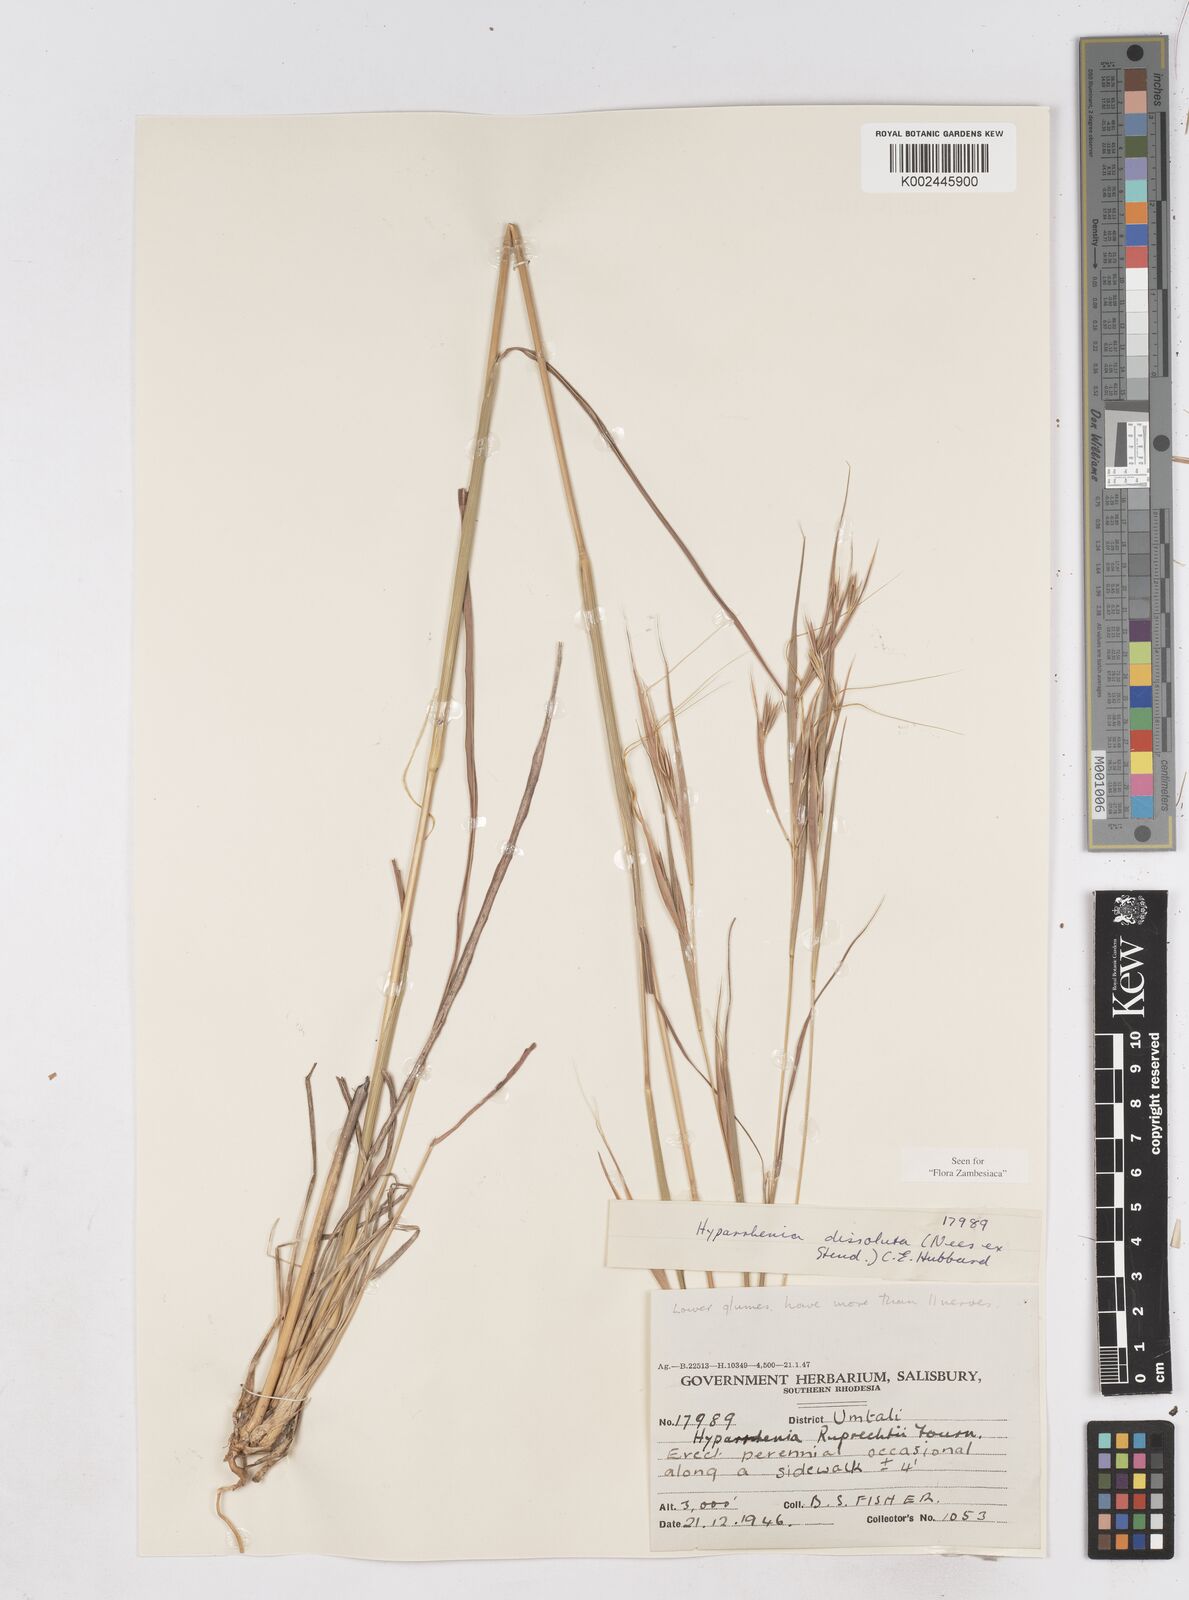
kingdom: Plantae
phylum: Tracheophyta
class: Liliopsida
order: Poales
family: Poaceae
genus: Hyperthelia
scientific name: Hyperthelia dissoluta
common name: Yellow thatching grass
